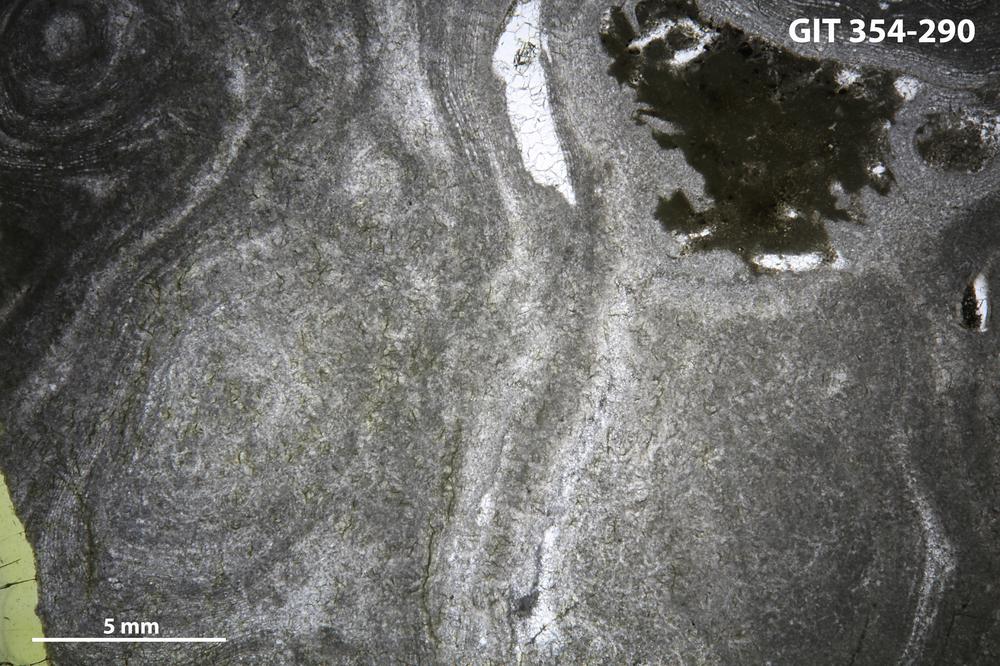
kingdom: Animalia
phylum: Porifera
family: Clathrodictyidae
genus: Clathrodictyon
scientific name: Clathrodictyon demissum
